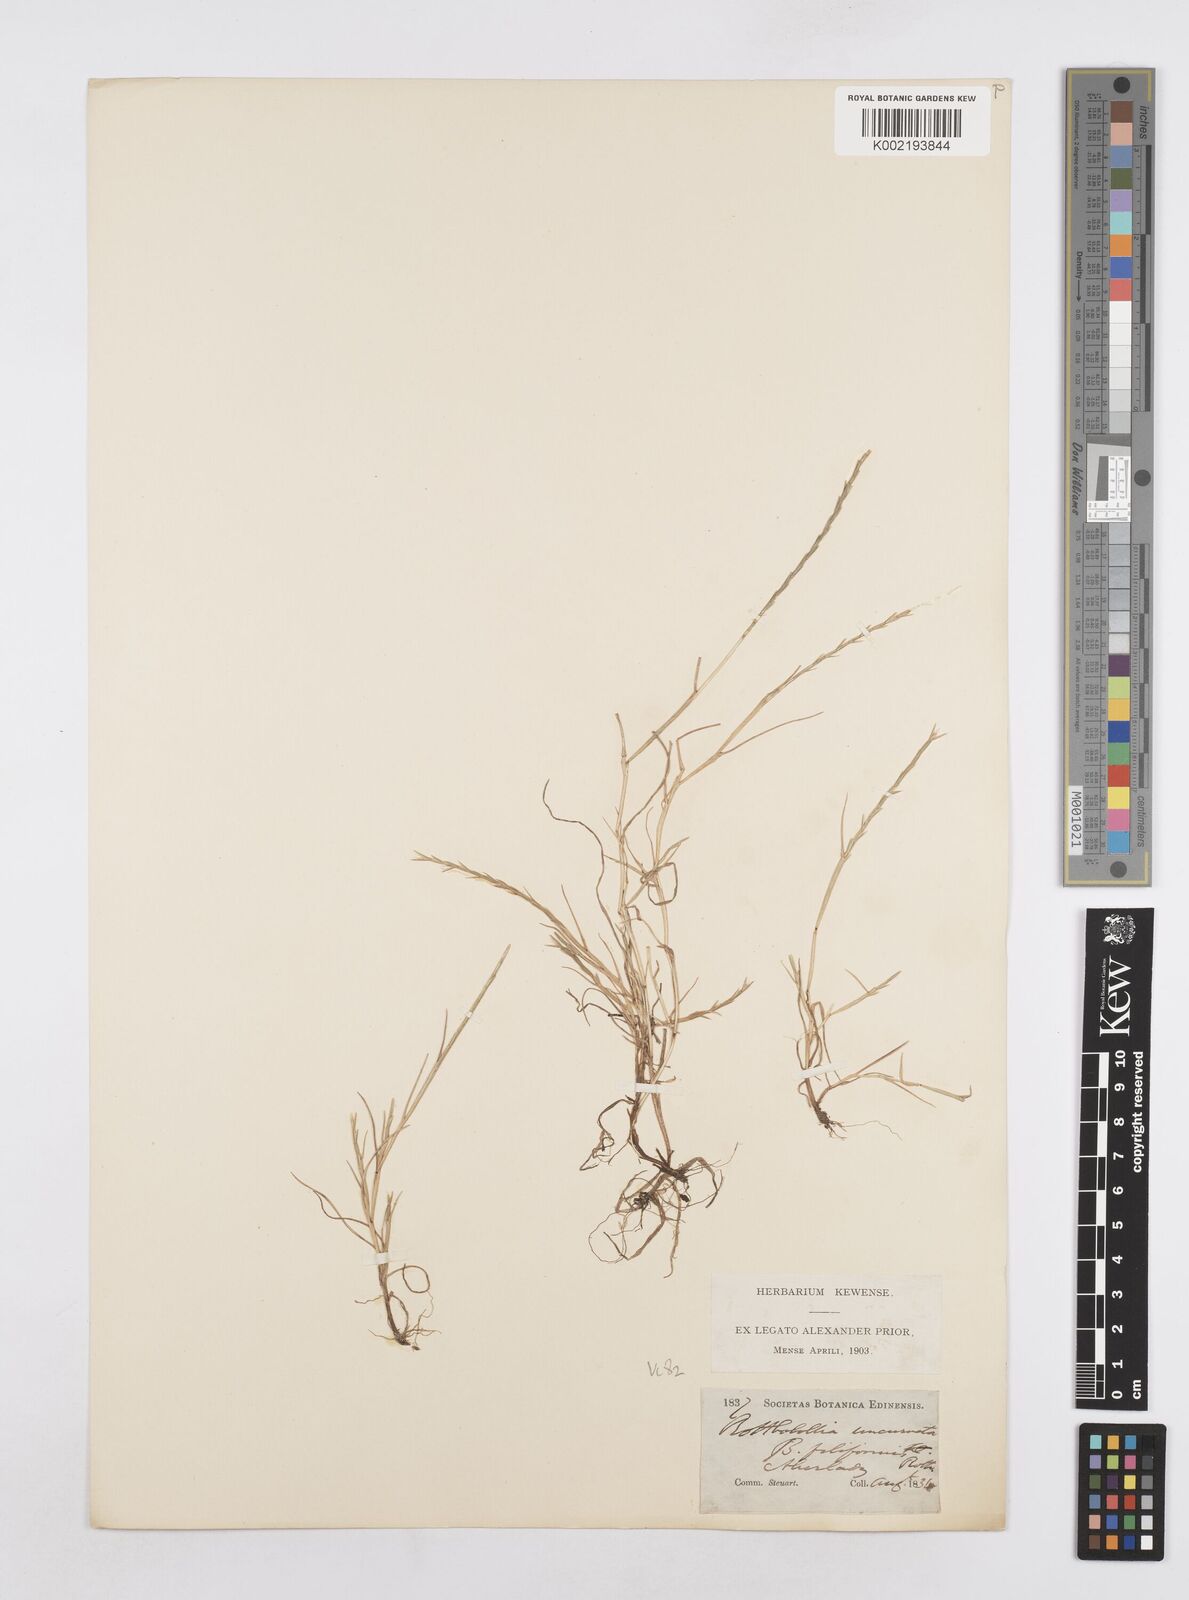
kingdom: Plantae
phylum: Tracheophyta
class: Liliopsida
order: Poales
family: Poaceae
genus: Parapholis
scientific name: Parapholis strigosa
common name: Hard-grass
